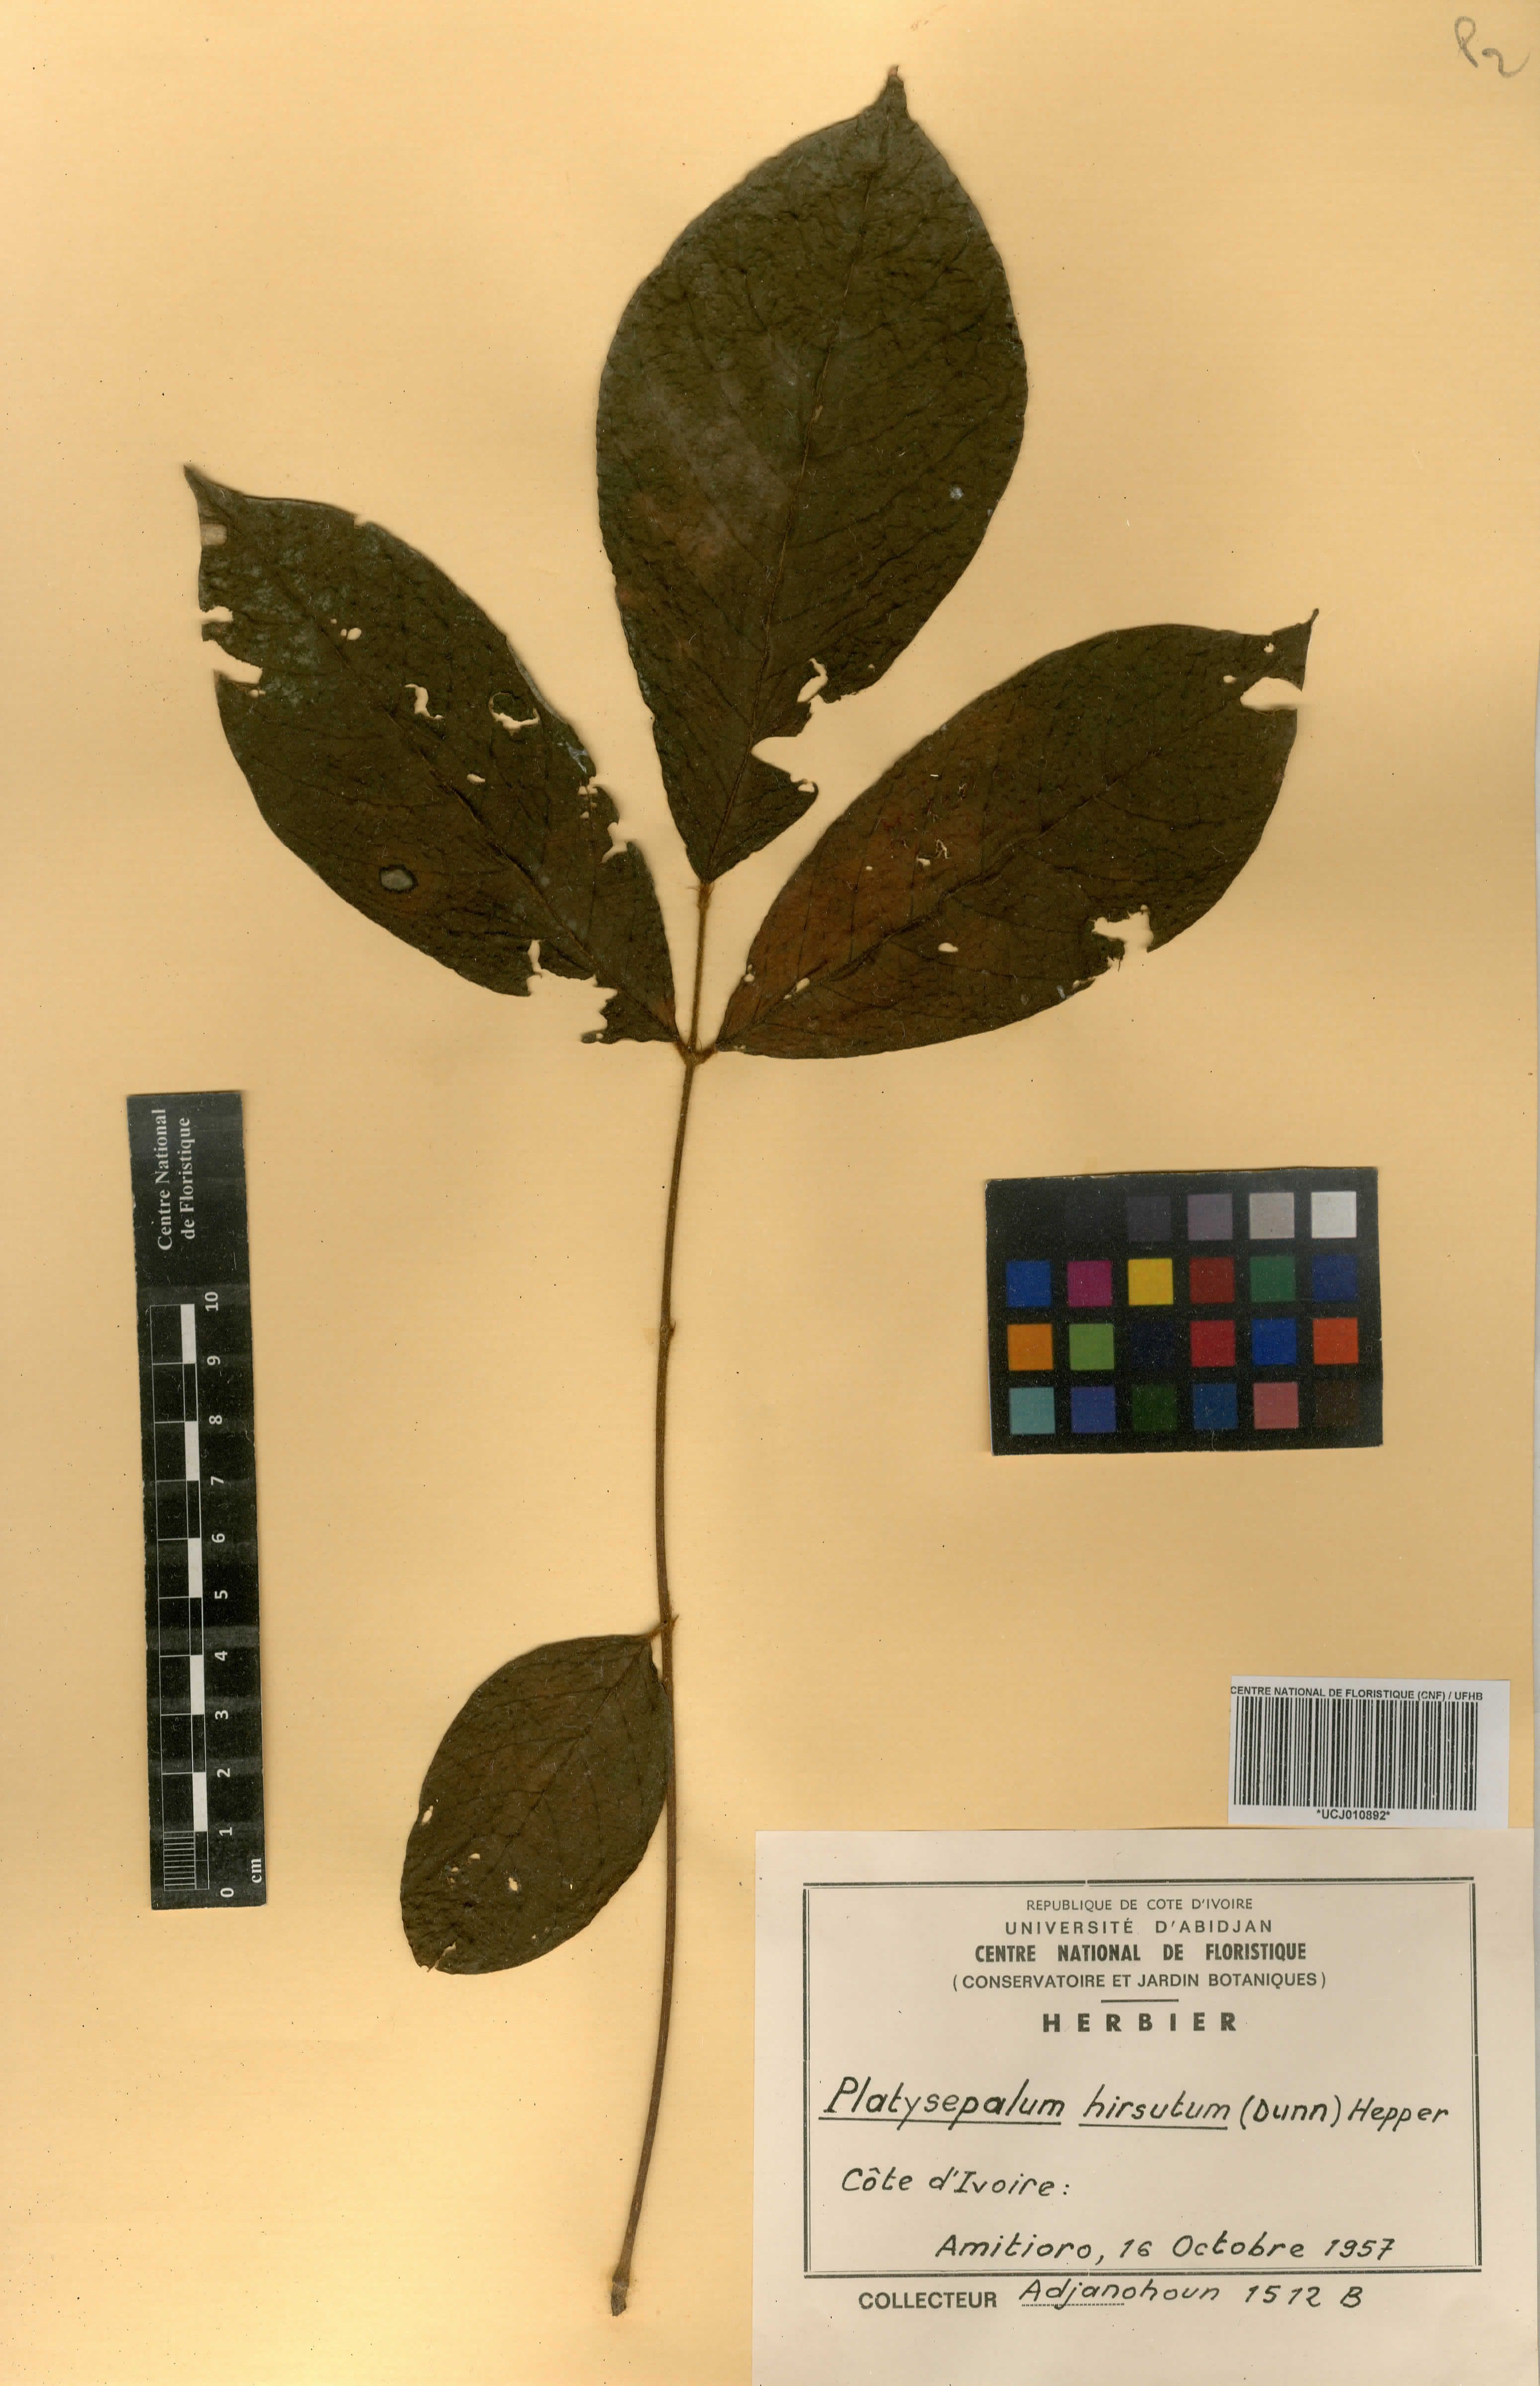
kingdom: Plantae
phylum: Tracheophyta
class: Magnoliopsida
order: Fabales
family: Fabaceae
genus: Platysepalum
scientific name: Platysepalum hirsutum
